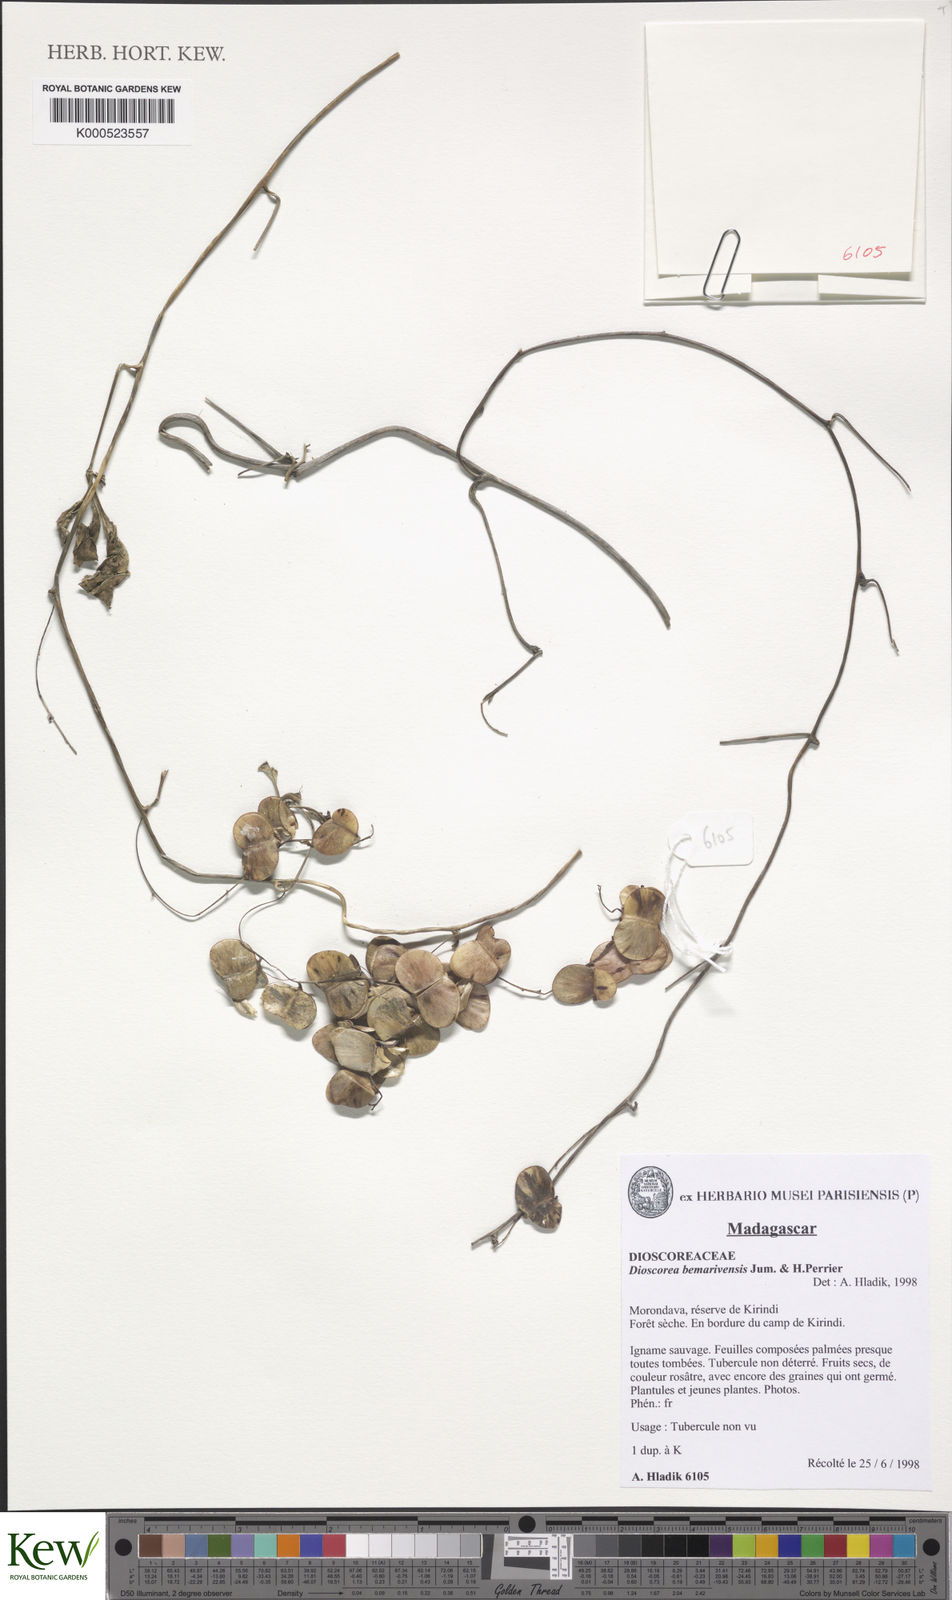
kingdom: Plantae
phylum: Tracheophyta
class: Liliopsida
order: Dioscoreales
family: Dioscoreaceae
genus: Dioscorea
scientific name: Dioscorea bemarivensis
